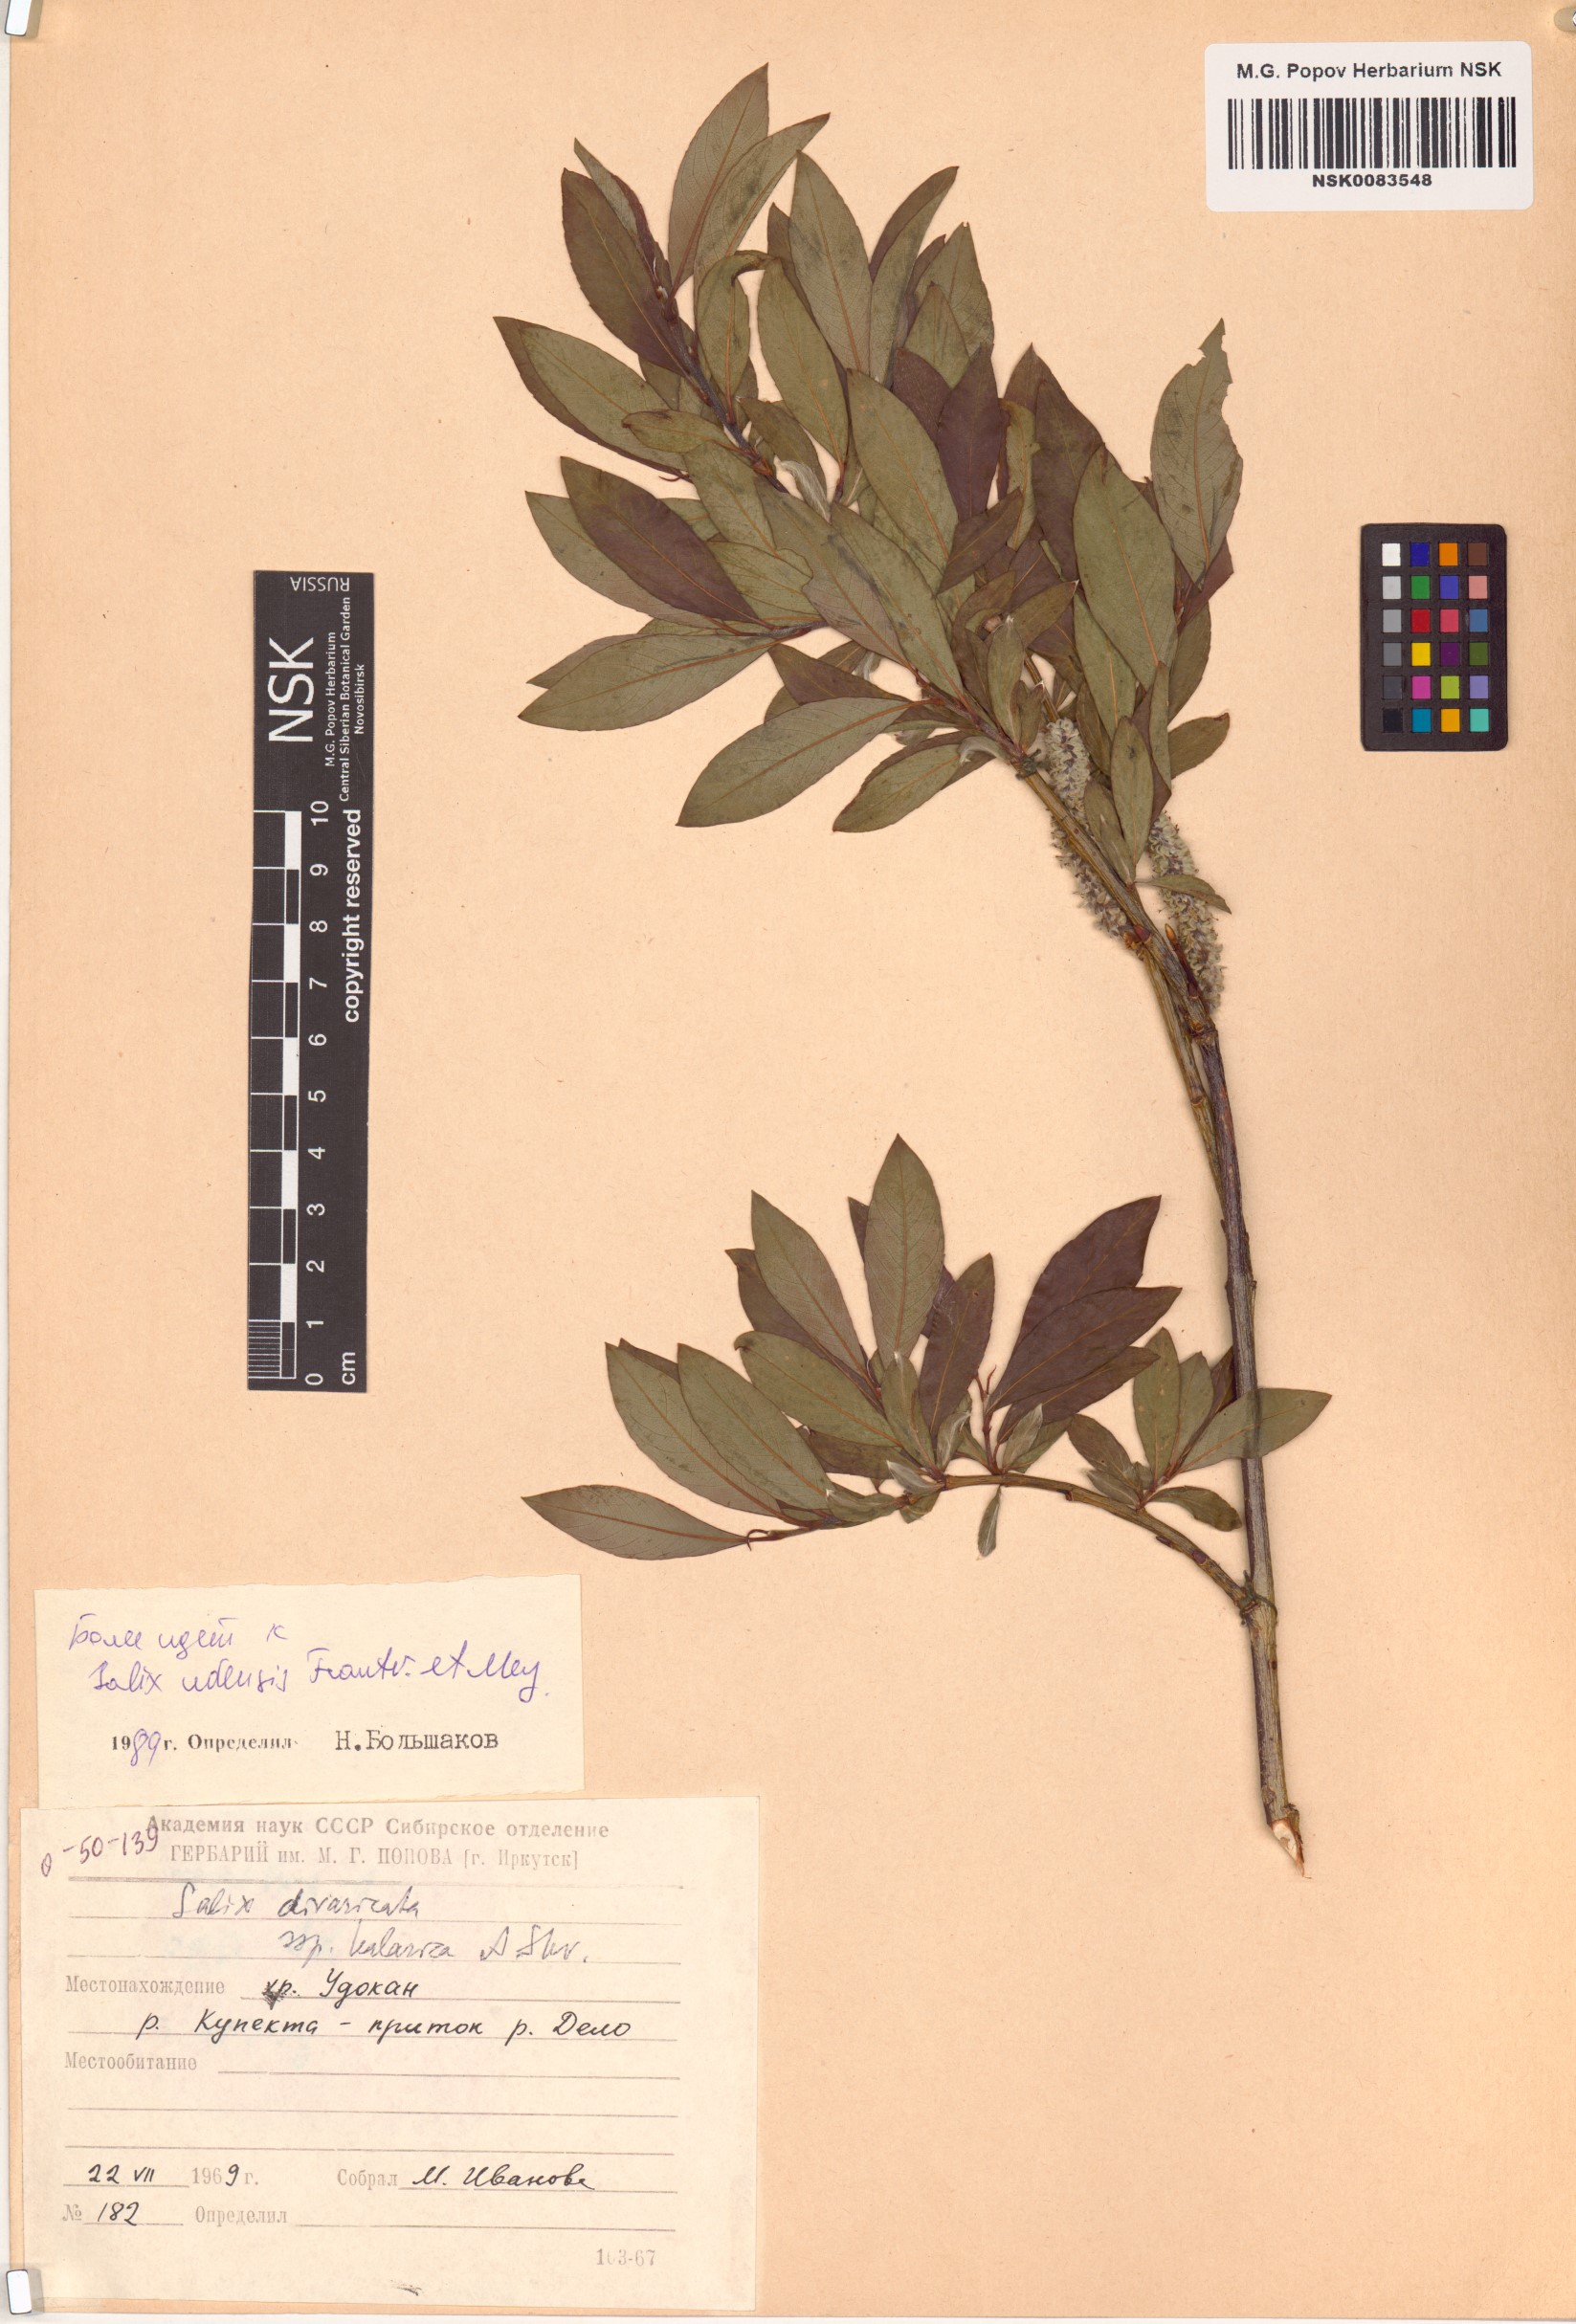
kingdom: Plantae
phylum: Tracheophyta
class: Magnoliopsida
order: Malpighiales
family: Salicaceae
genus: Salix
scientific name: Salix udensis
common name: Sachalin willow
